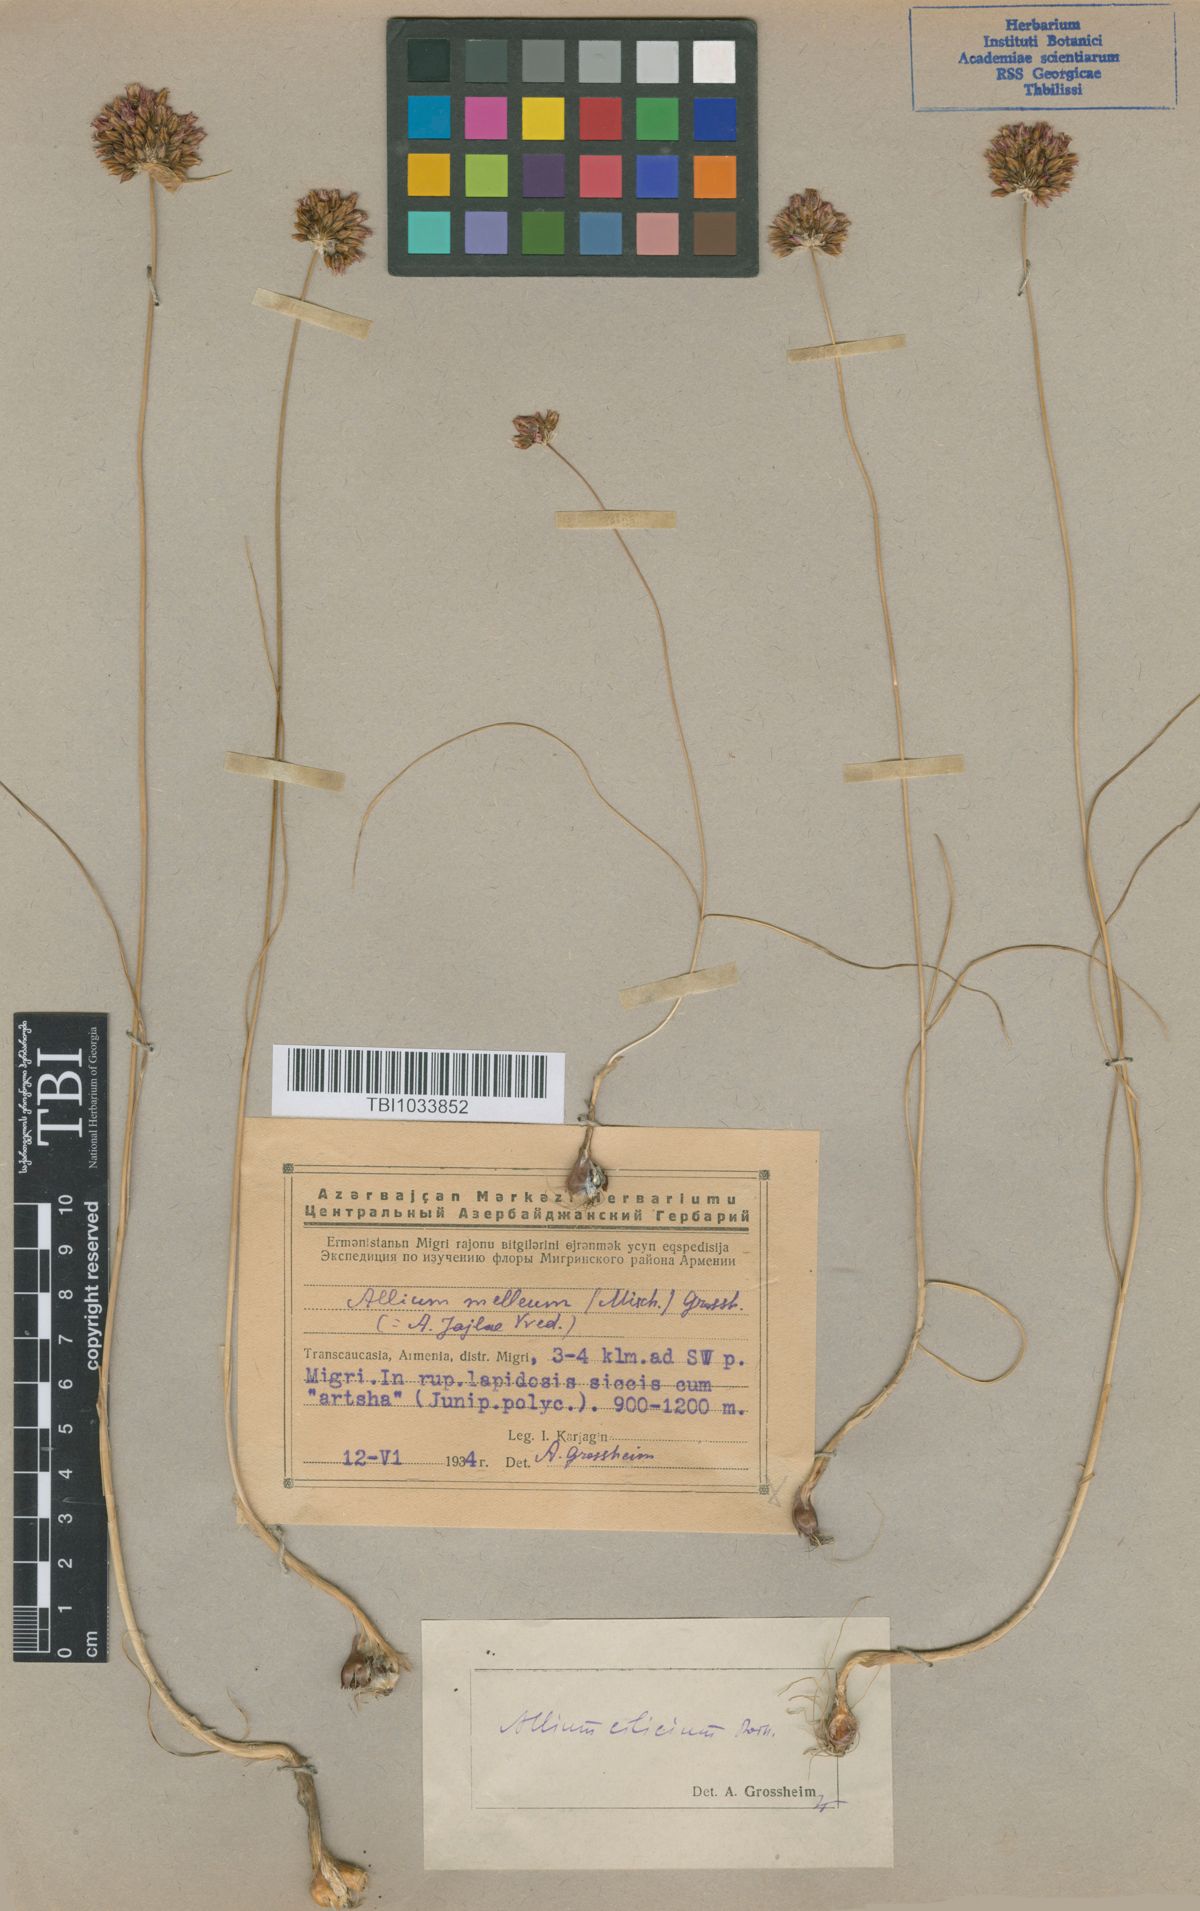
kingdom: Plantae
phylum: Tracheophyta
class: Liliopsida
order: Asparagales
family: Amaryllidaceae
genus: Allium
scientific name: Allium rotundum
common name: Sand leek
